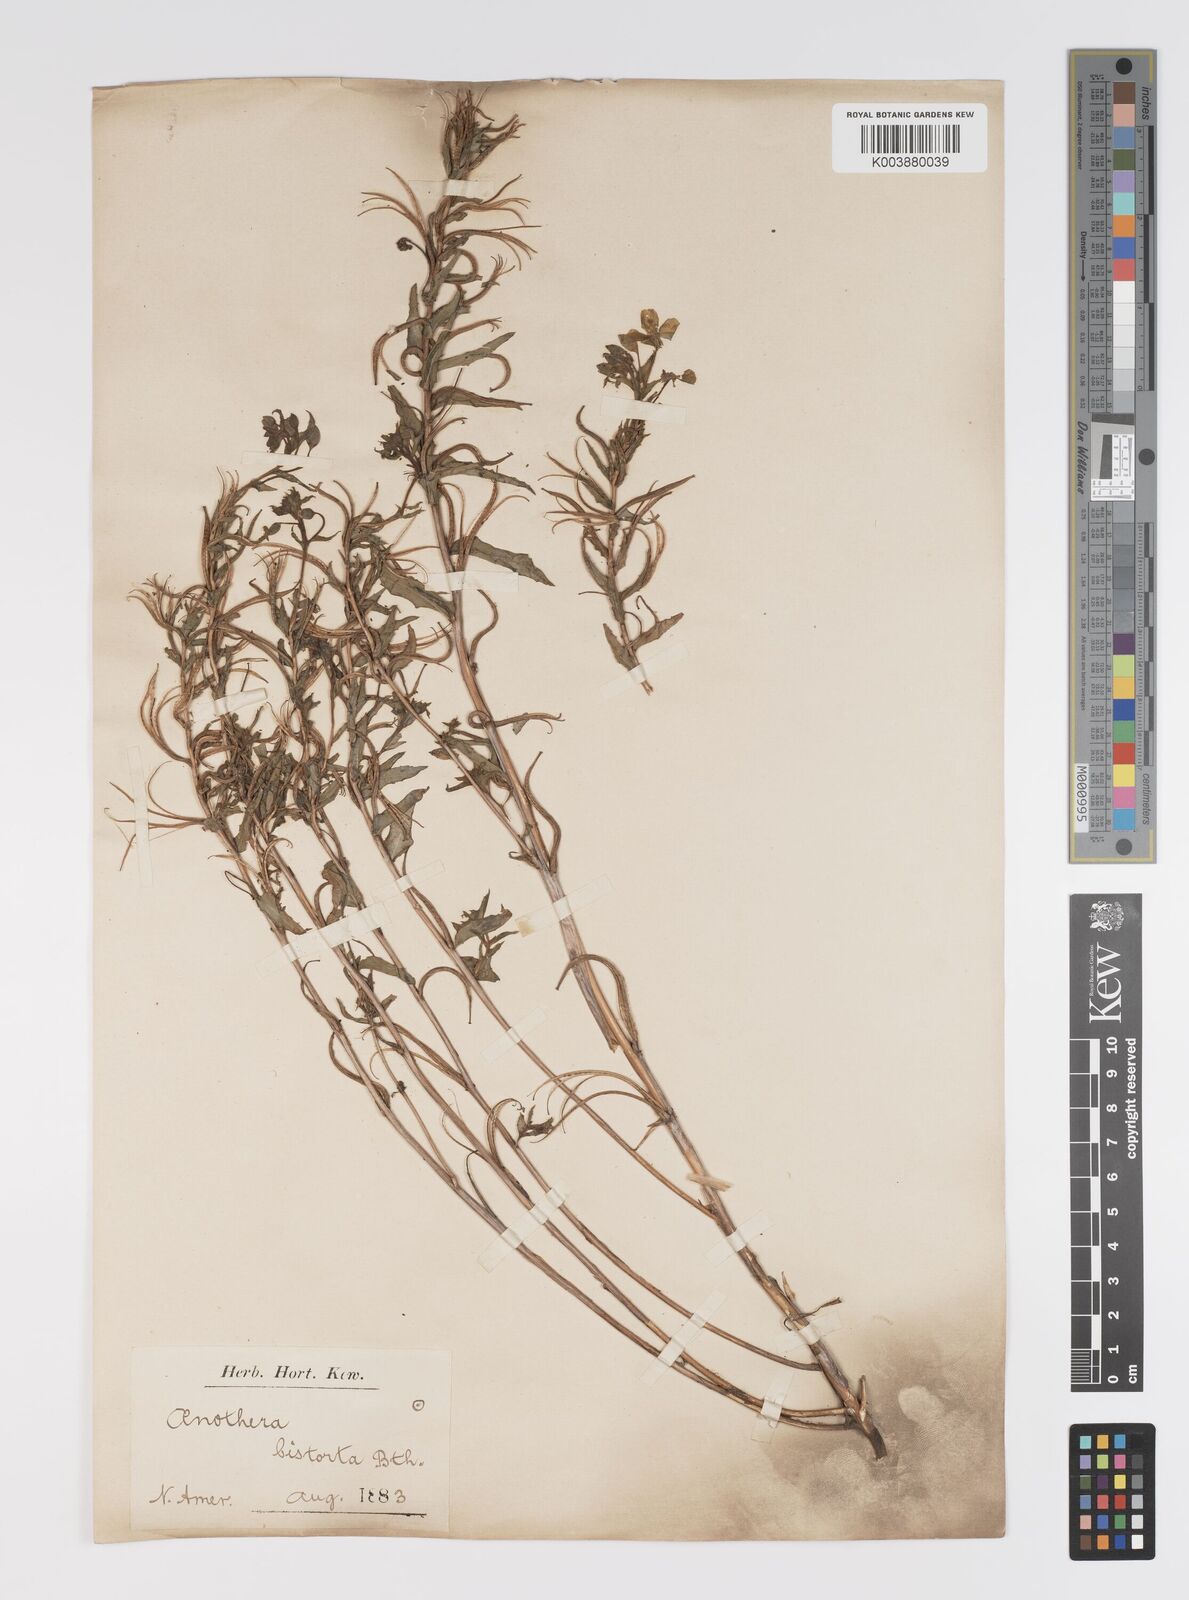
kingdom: Plantae
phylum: Tracheophyta
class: Magnoliopsida
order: Myrtales
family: Onagraceae
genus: Camissoniopsis
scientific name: Camissoniopsis bistorta
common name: Southern suncup
